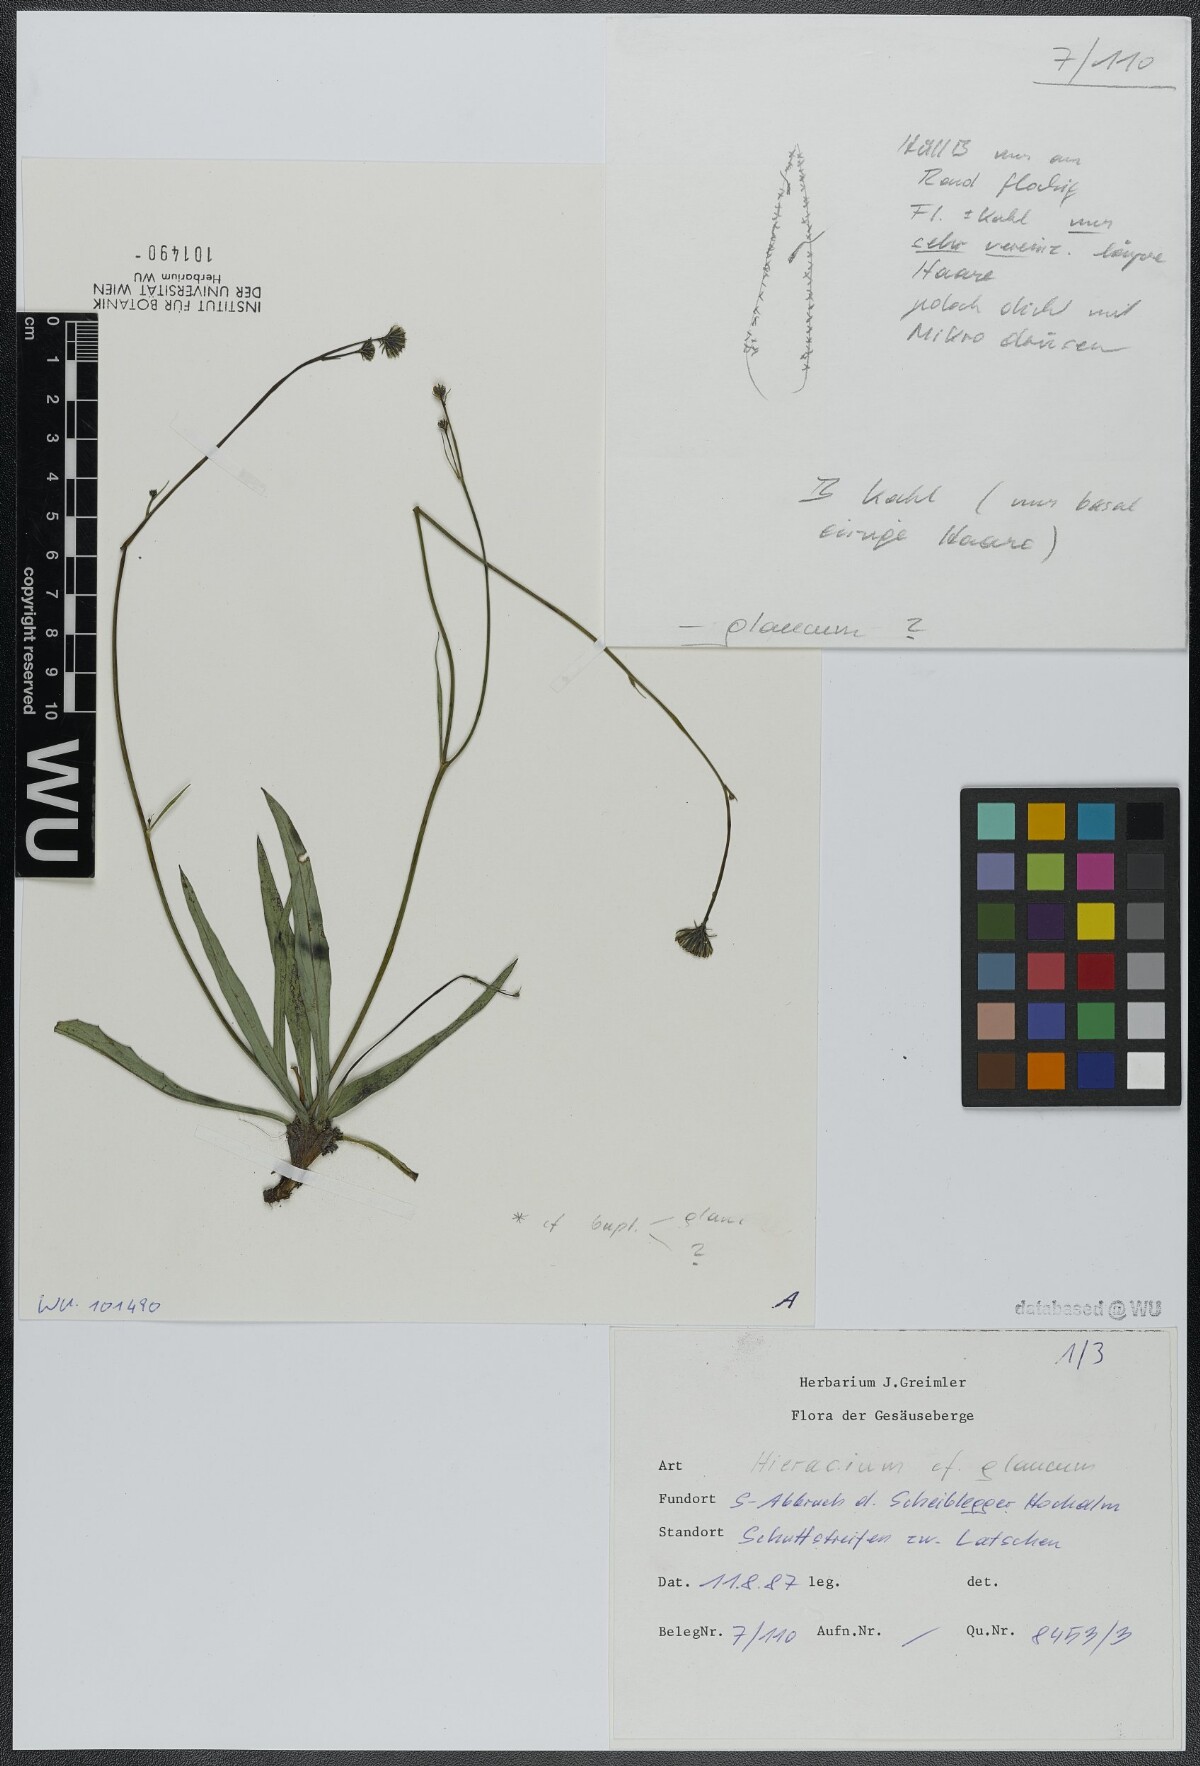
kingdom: Plantae
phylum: Tracheophyta
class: Magnoliopsida
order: Asterales
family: Asteraceae
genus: Hieracium
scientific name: Hieracium glaucum
